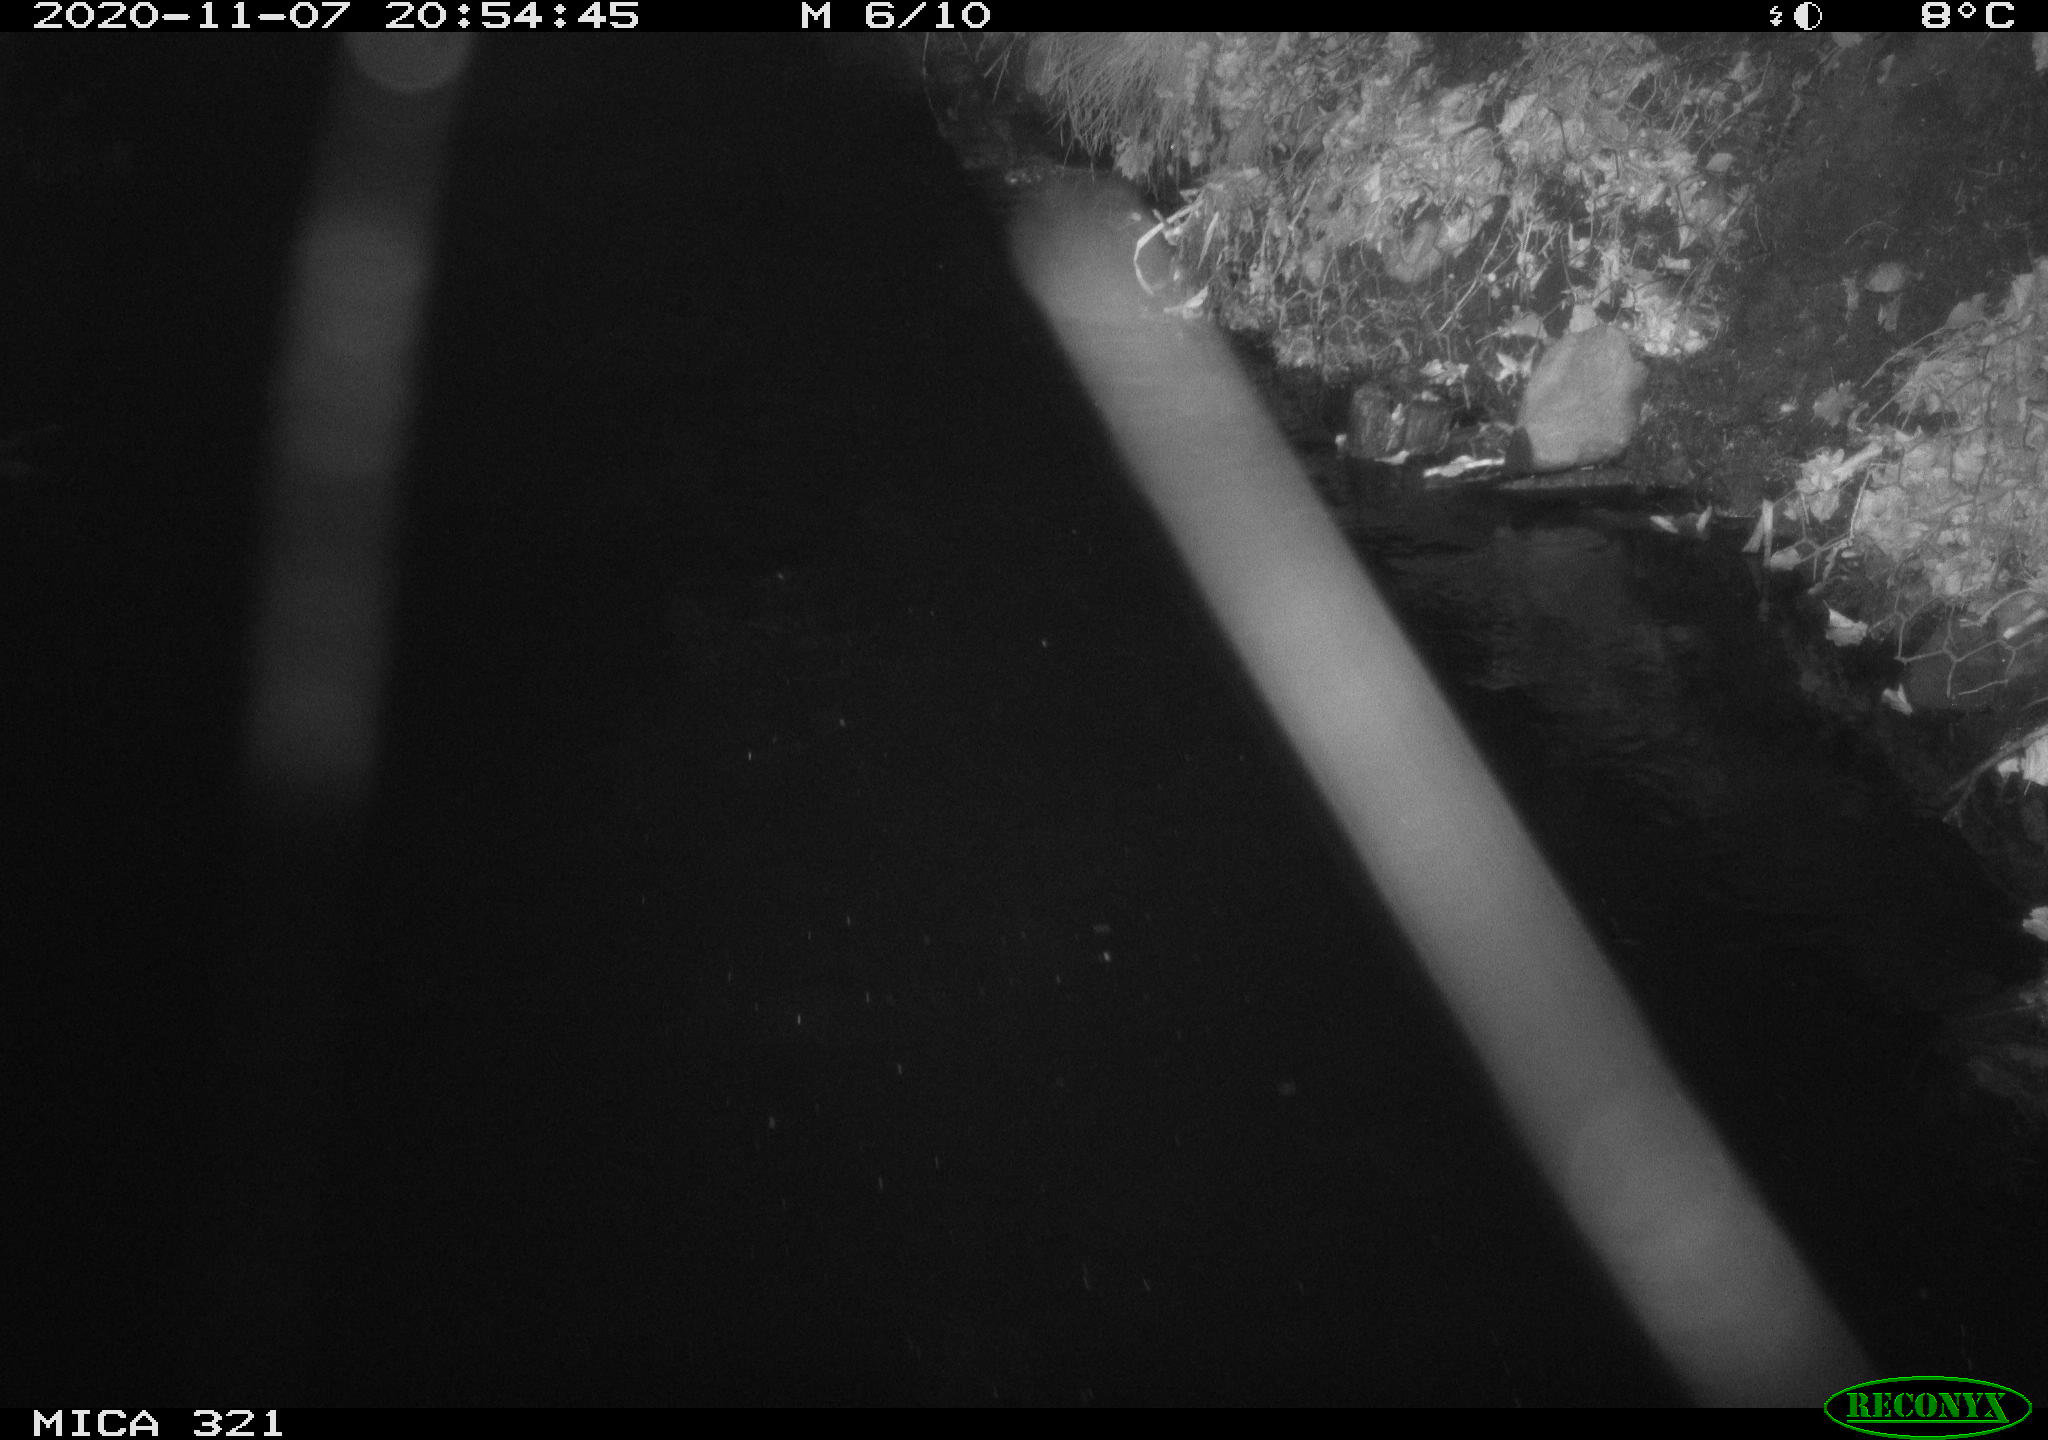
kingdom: Animalia
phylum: Chordata
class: Mammalia
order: Rodentia
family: Muridae
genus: Rattus
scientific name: Rattus norvegicus
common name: Brown rat
